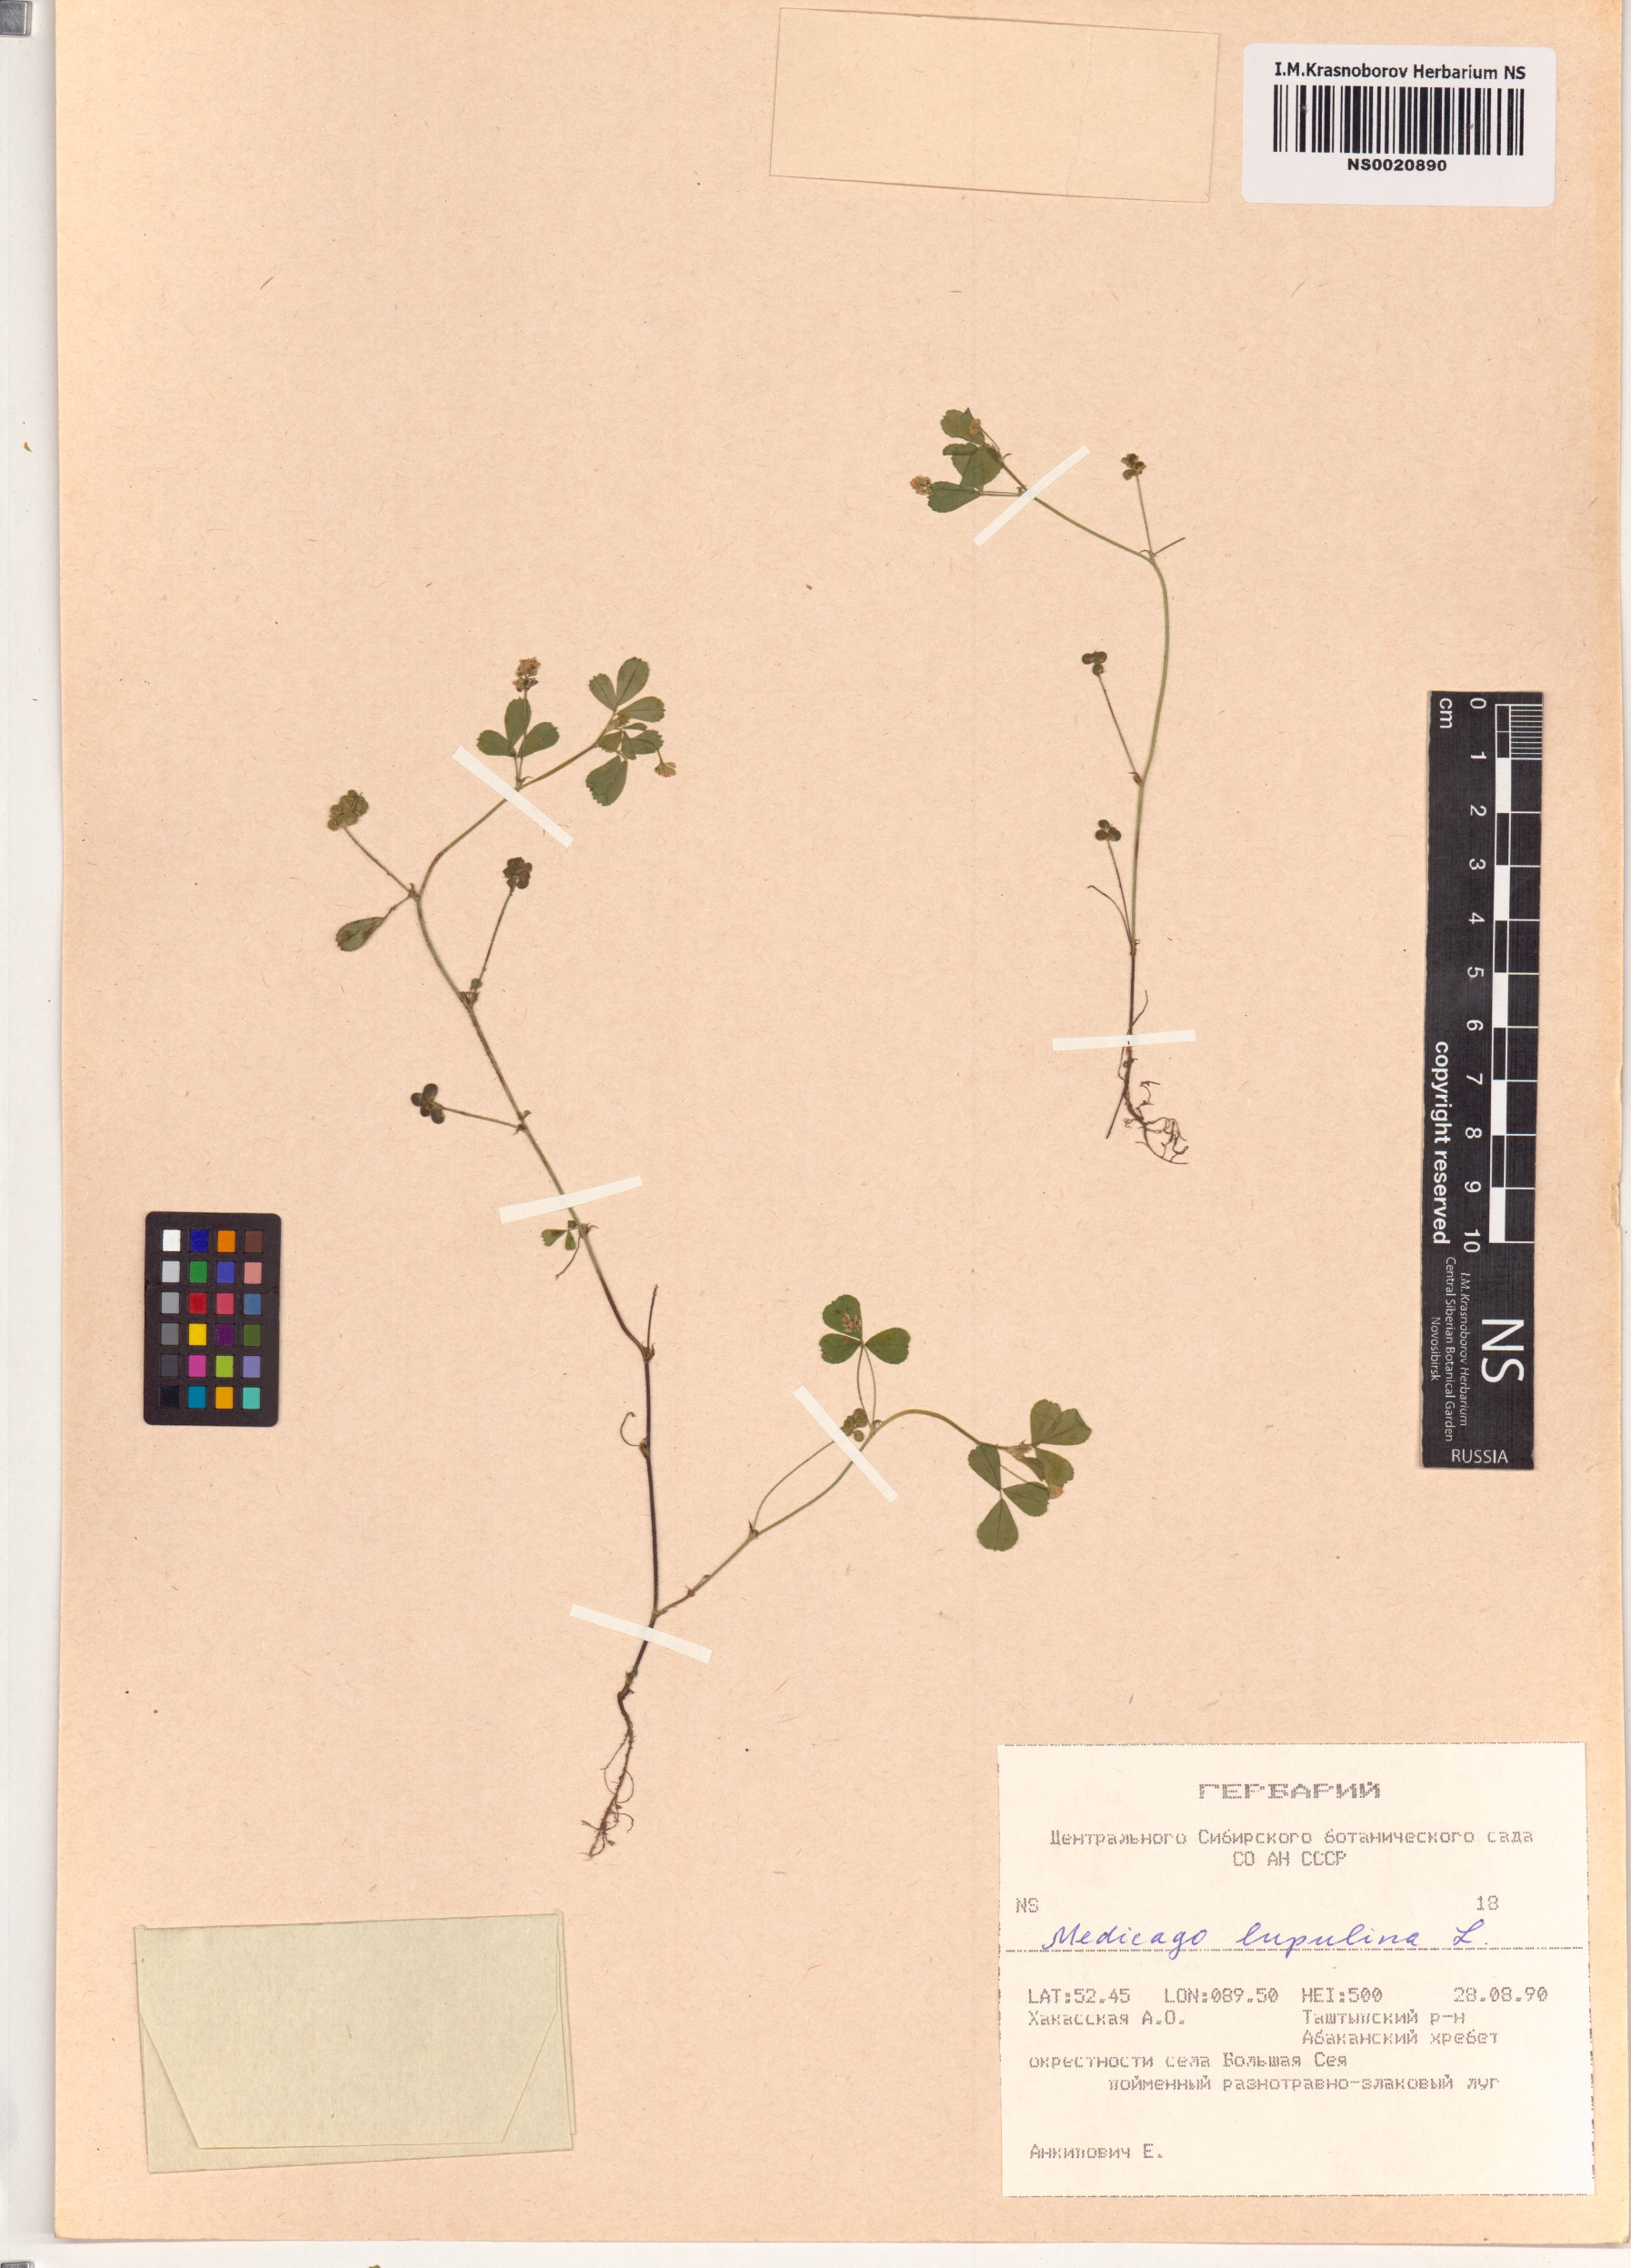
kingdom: Plantae
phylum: Tracheophyta
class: Magnoliopsida
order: Fabales
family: Fabaceae
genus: Medicago
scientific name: Medicago lupulina
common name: Black medick
